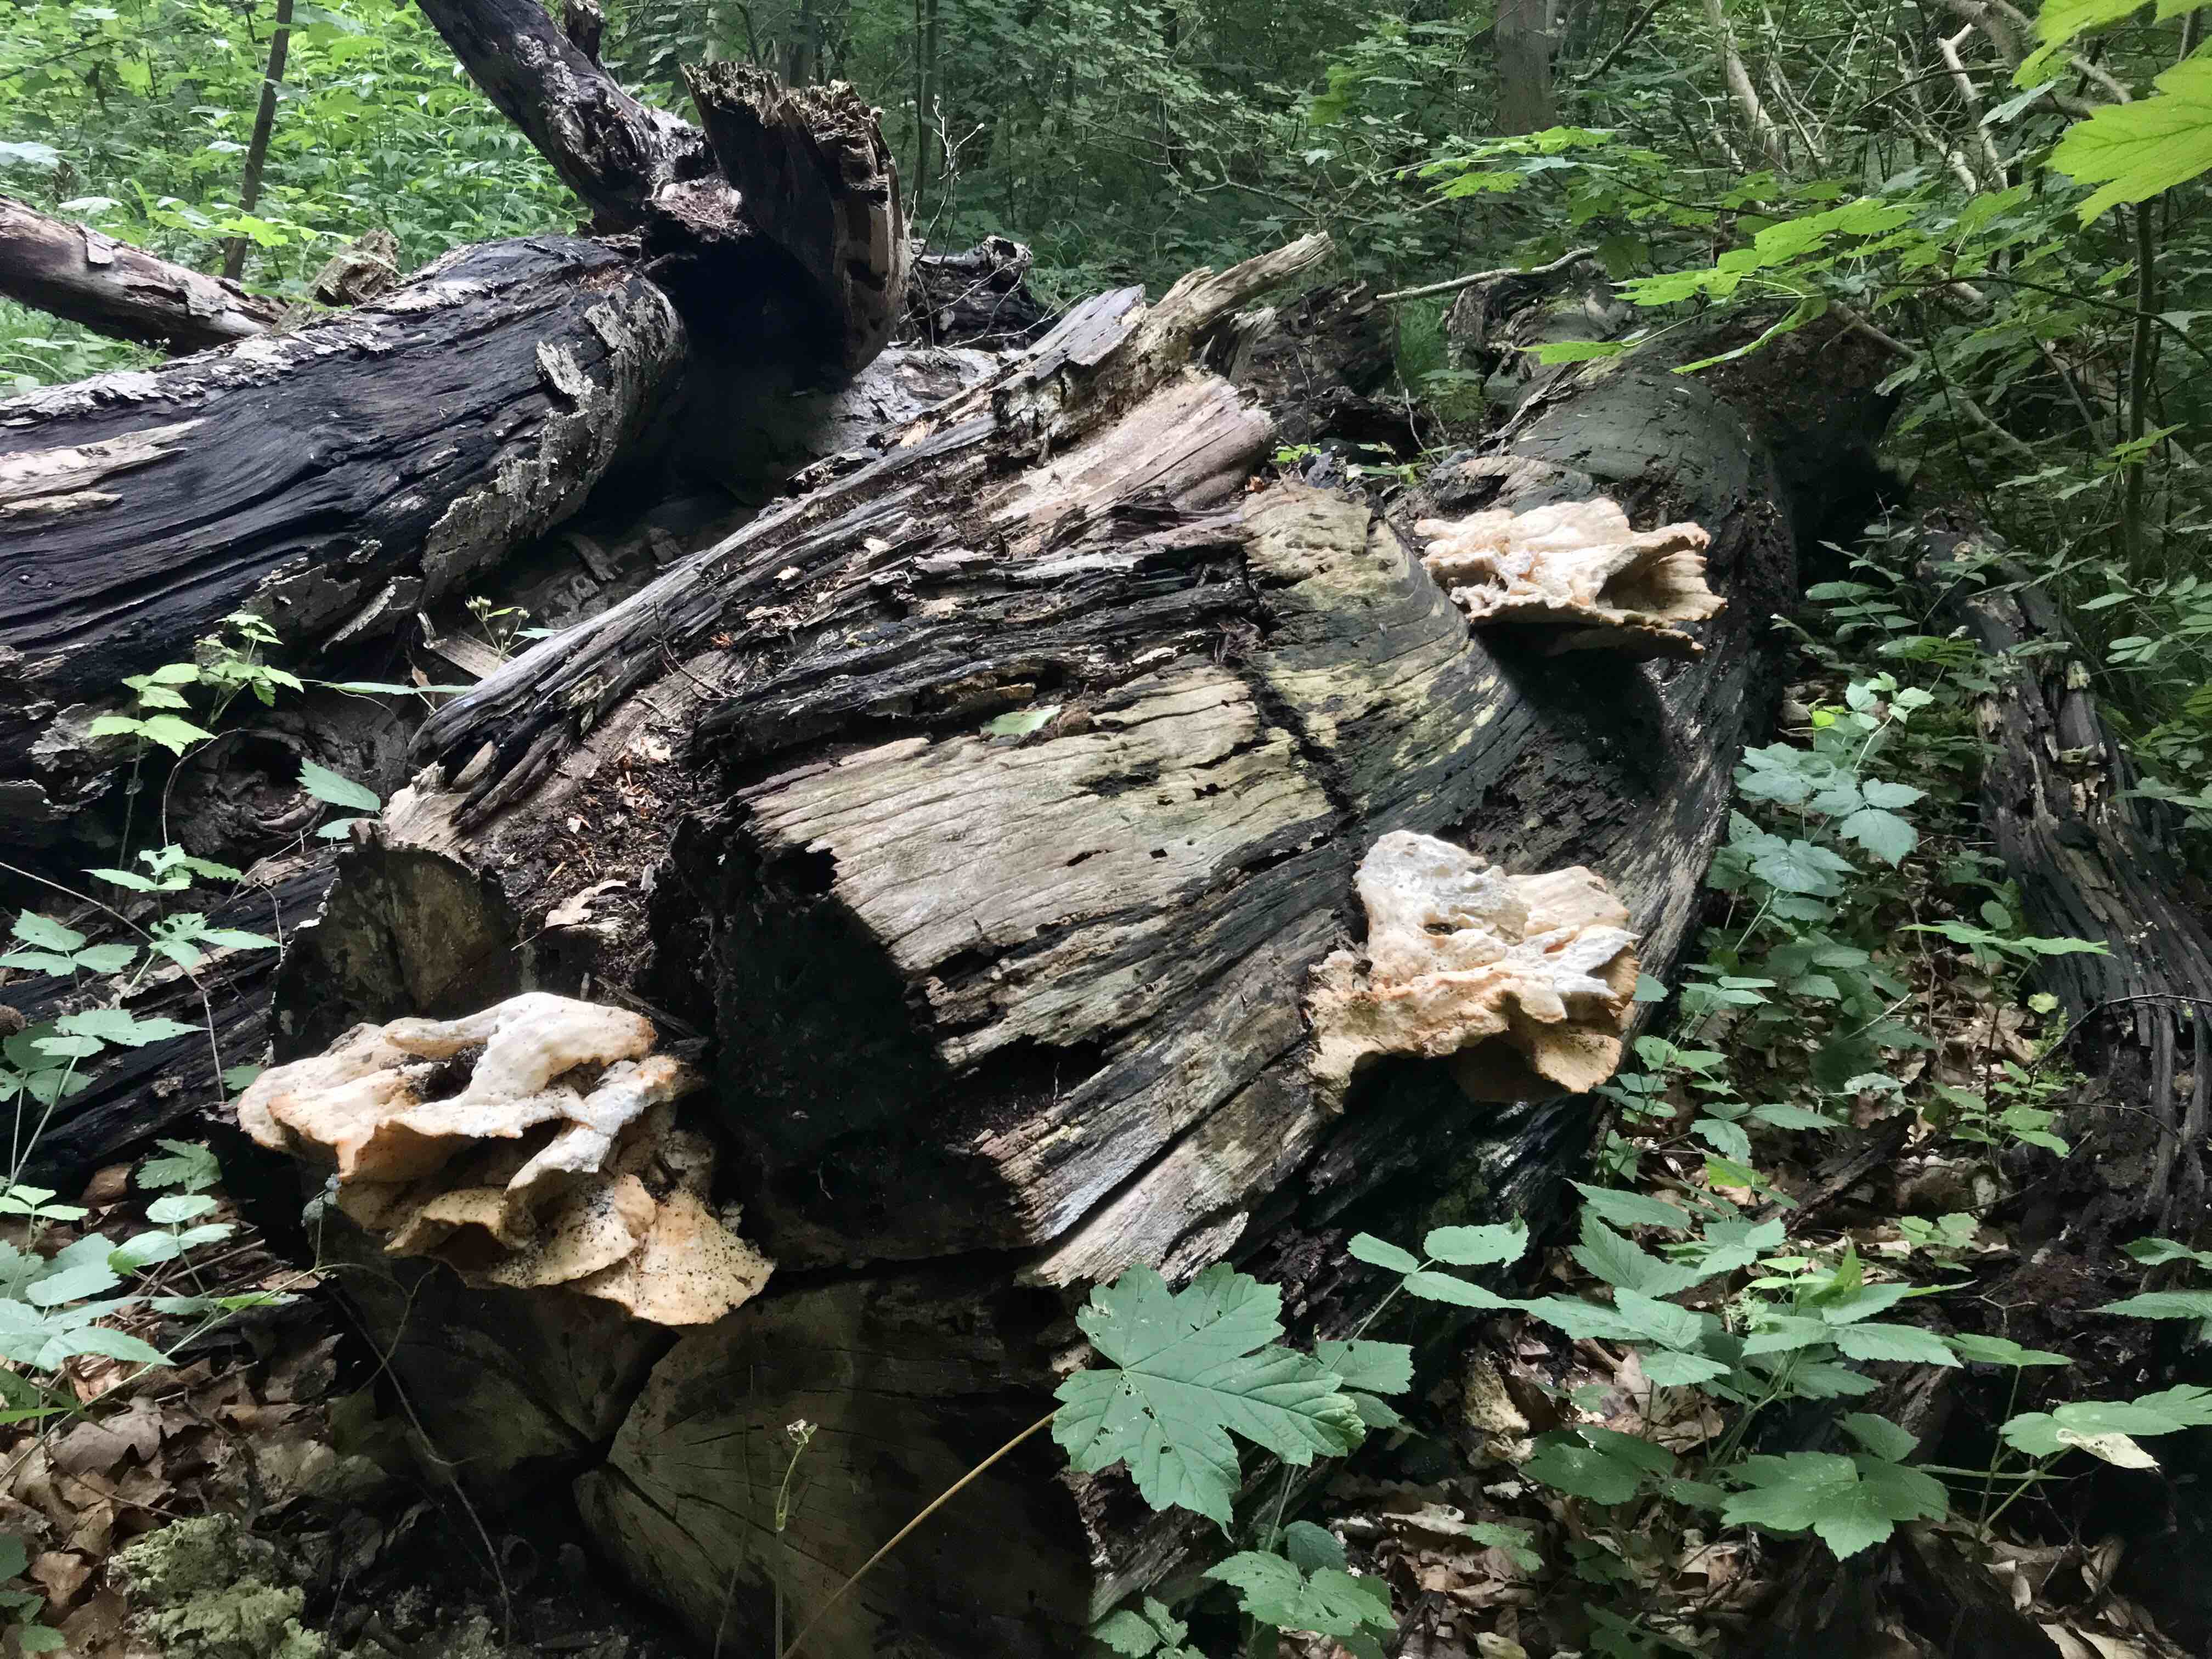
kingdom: Fungi
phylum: Basidiomycota
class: Agaricomycetes
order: Polyporales
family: Laetiporaceae
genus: Laetiporus
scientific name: Laetiporus sulphureus
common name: svovlporesvamp
